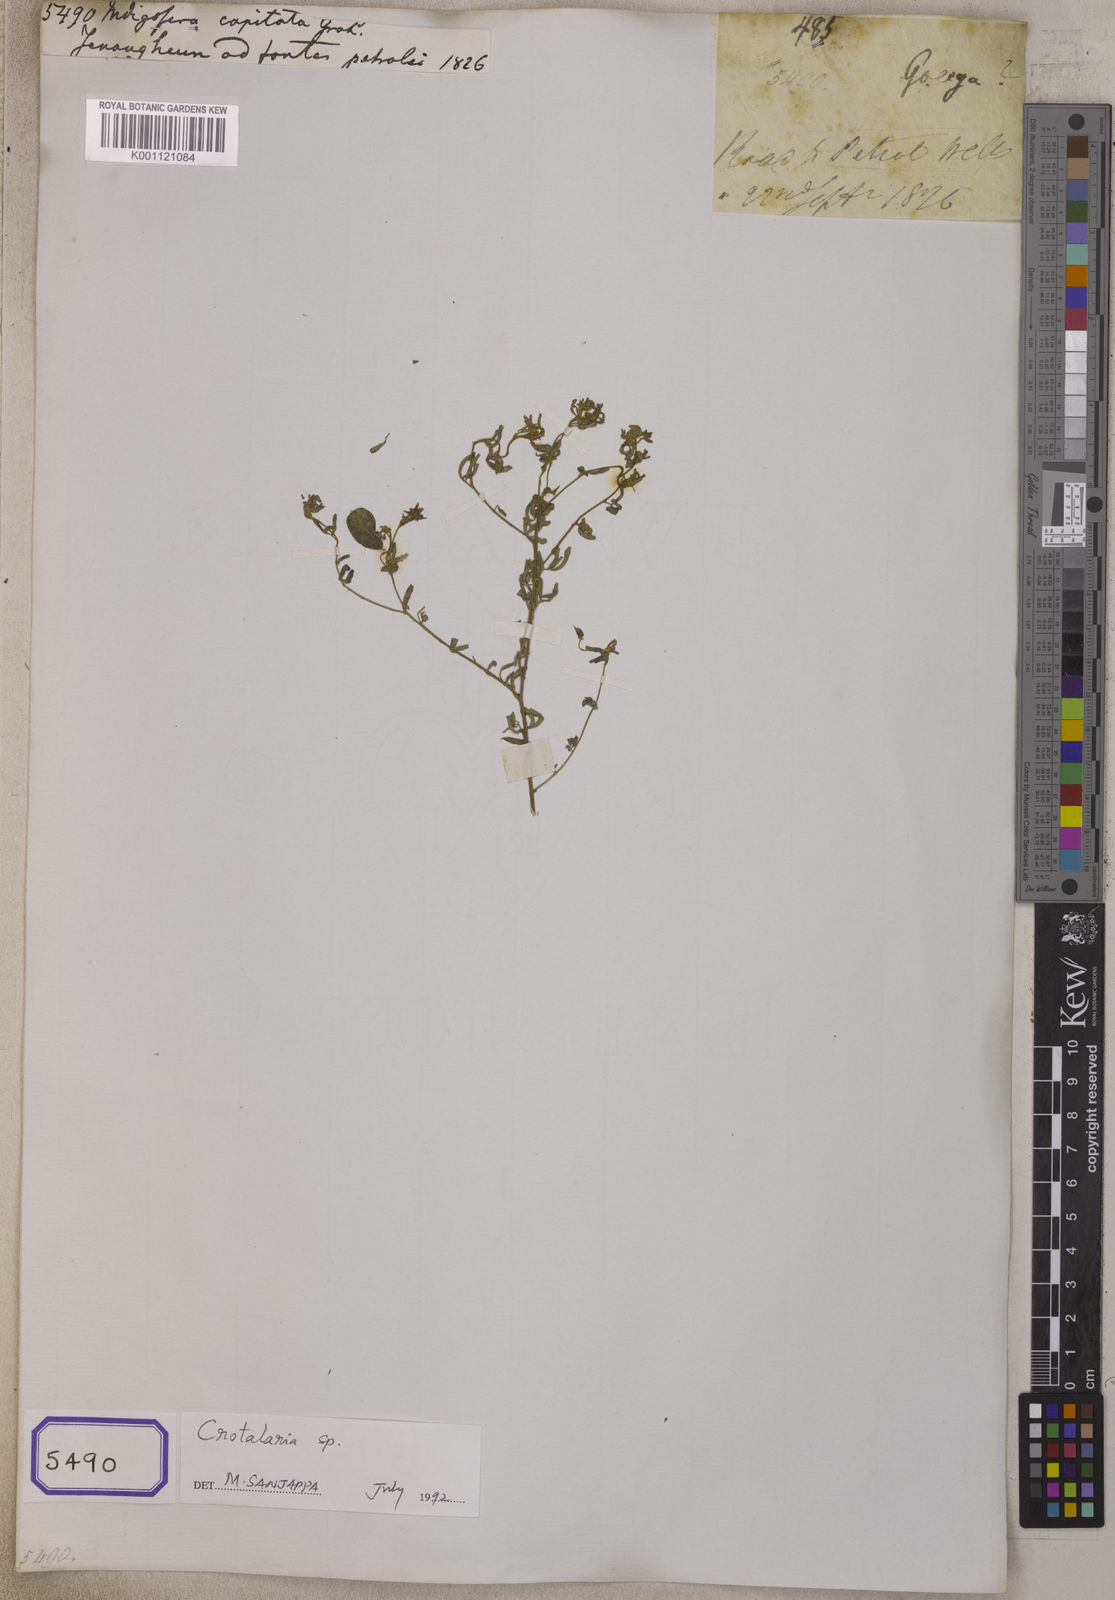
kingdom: Plantae
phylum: Tracheophyta
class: Magnoliopsida
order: Fabales
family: Fabaceae
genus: Crotalaria
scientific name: Crotalaria medicaginea
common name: Trefoil rattlepod
